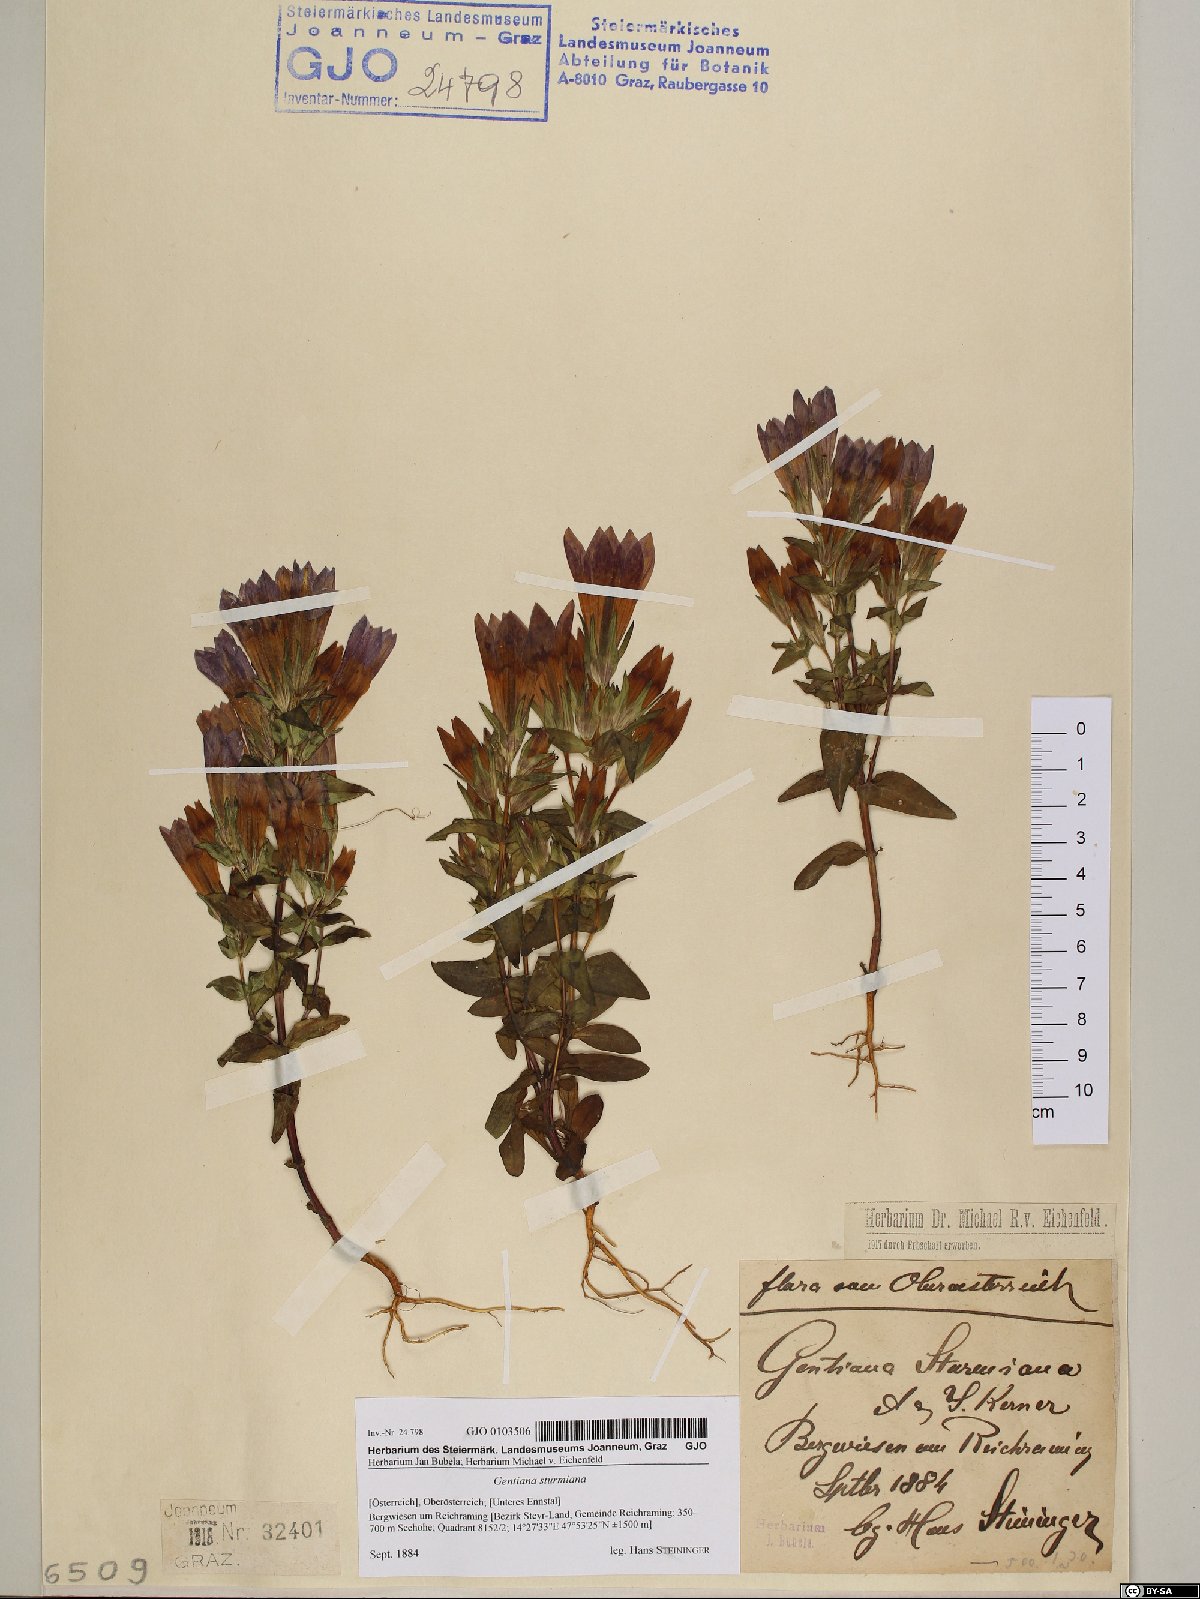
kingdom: Plantae
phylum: Tracheophyta
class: Magnoliopsida
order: Gentianales
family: Gentianaceae
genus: Gentianella
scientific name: Gentianella obtusifolia
